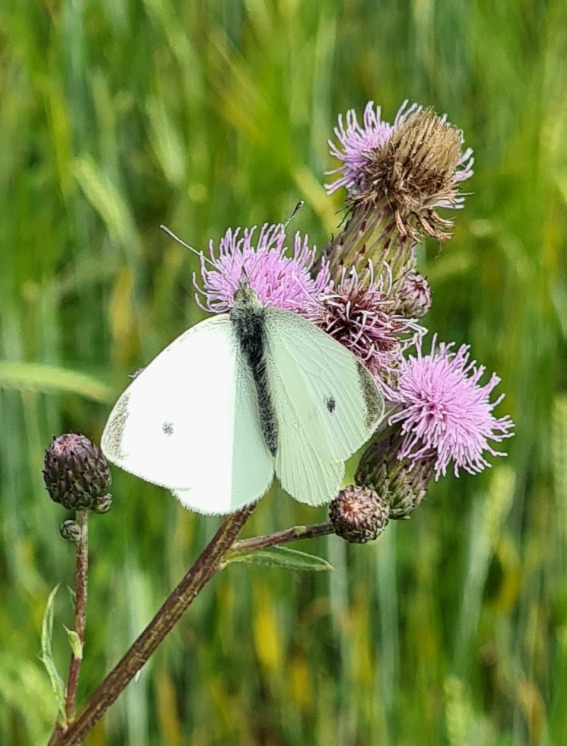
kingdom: Animalia
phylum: Arthropoda
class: Insecta
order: Lepidoptera
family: Pieridae
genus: Pieris
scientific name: Pieris rapae
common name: Lille kålsommerfugl
